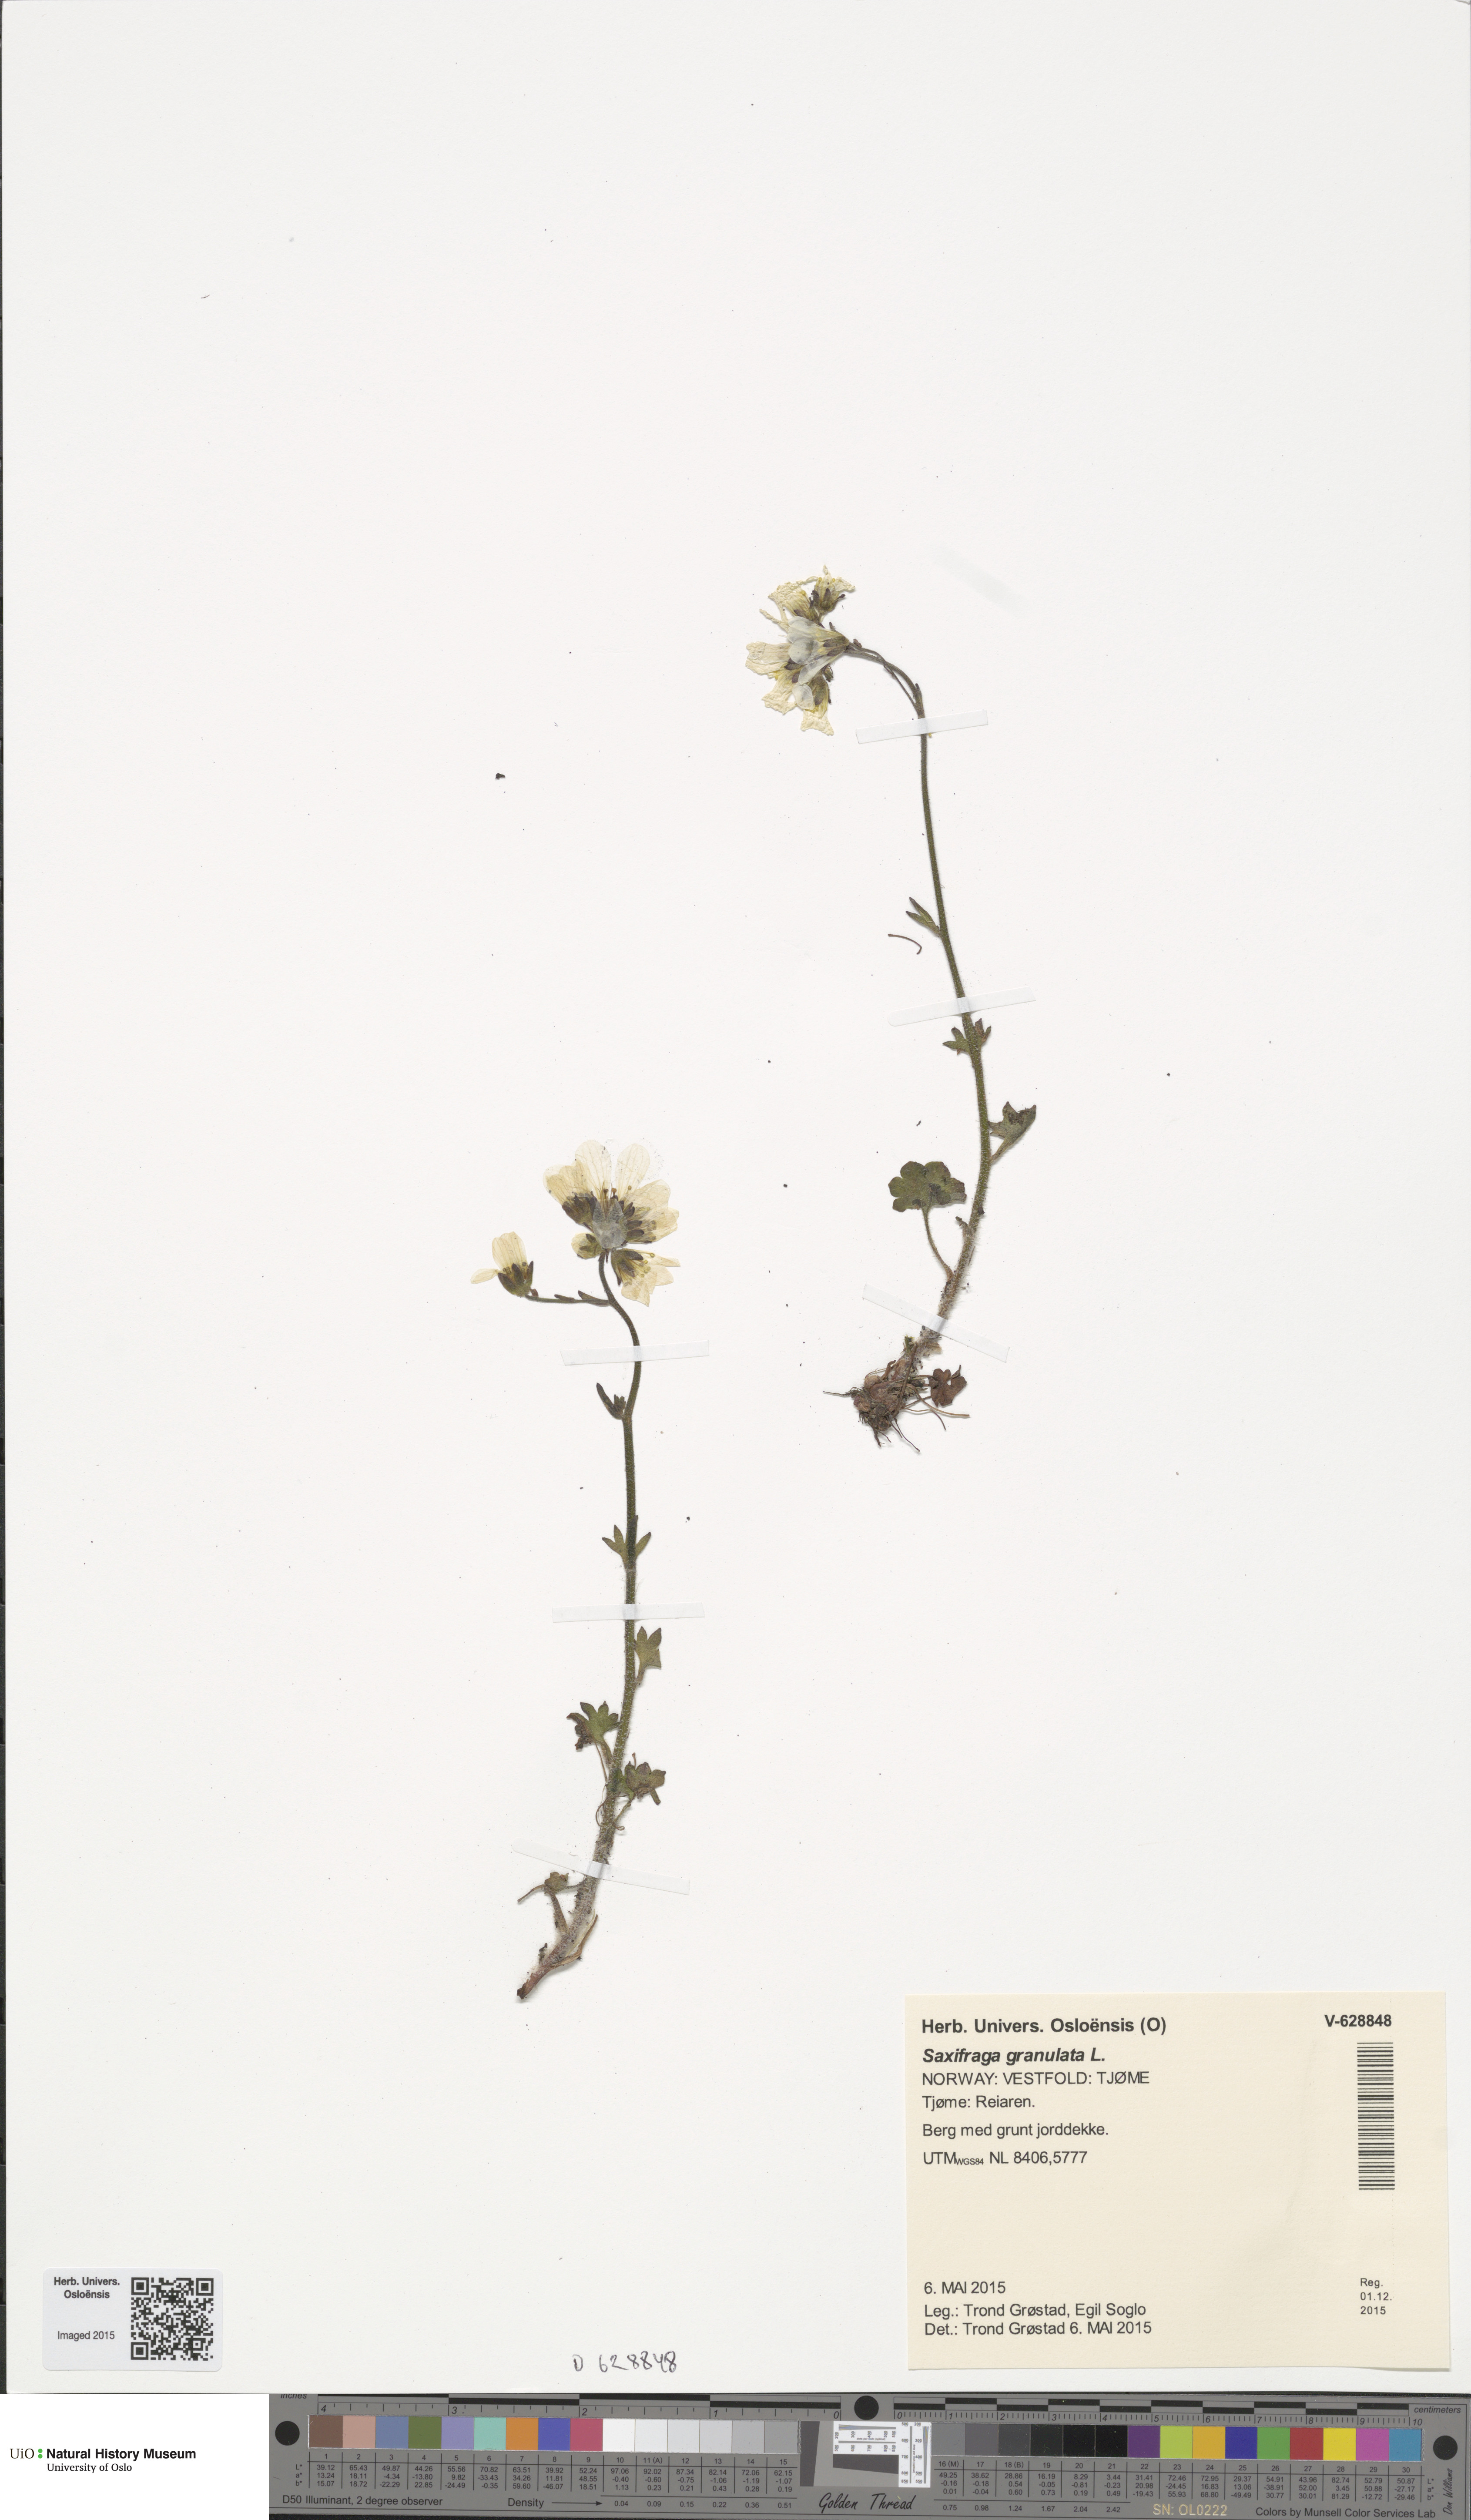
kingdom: Plantae
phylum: Tracheophyta
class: Magnoliopsida
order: Saxifragales
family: Saxifragaceae
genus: Saxifraga
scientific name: Saxifraga granulata
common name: Meadow saxifrage
